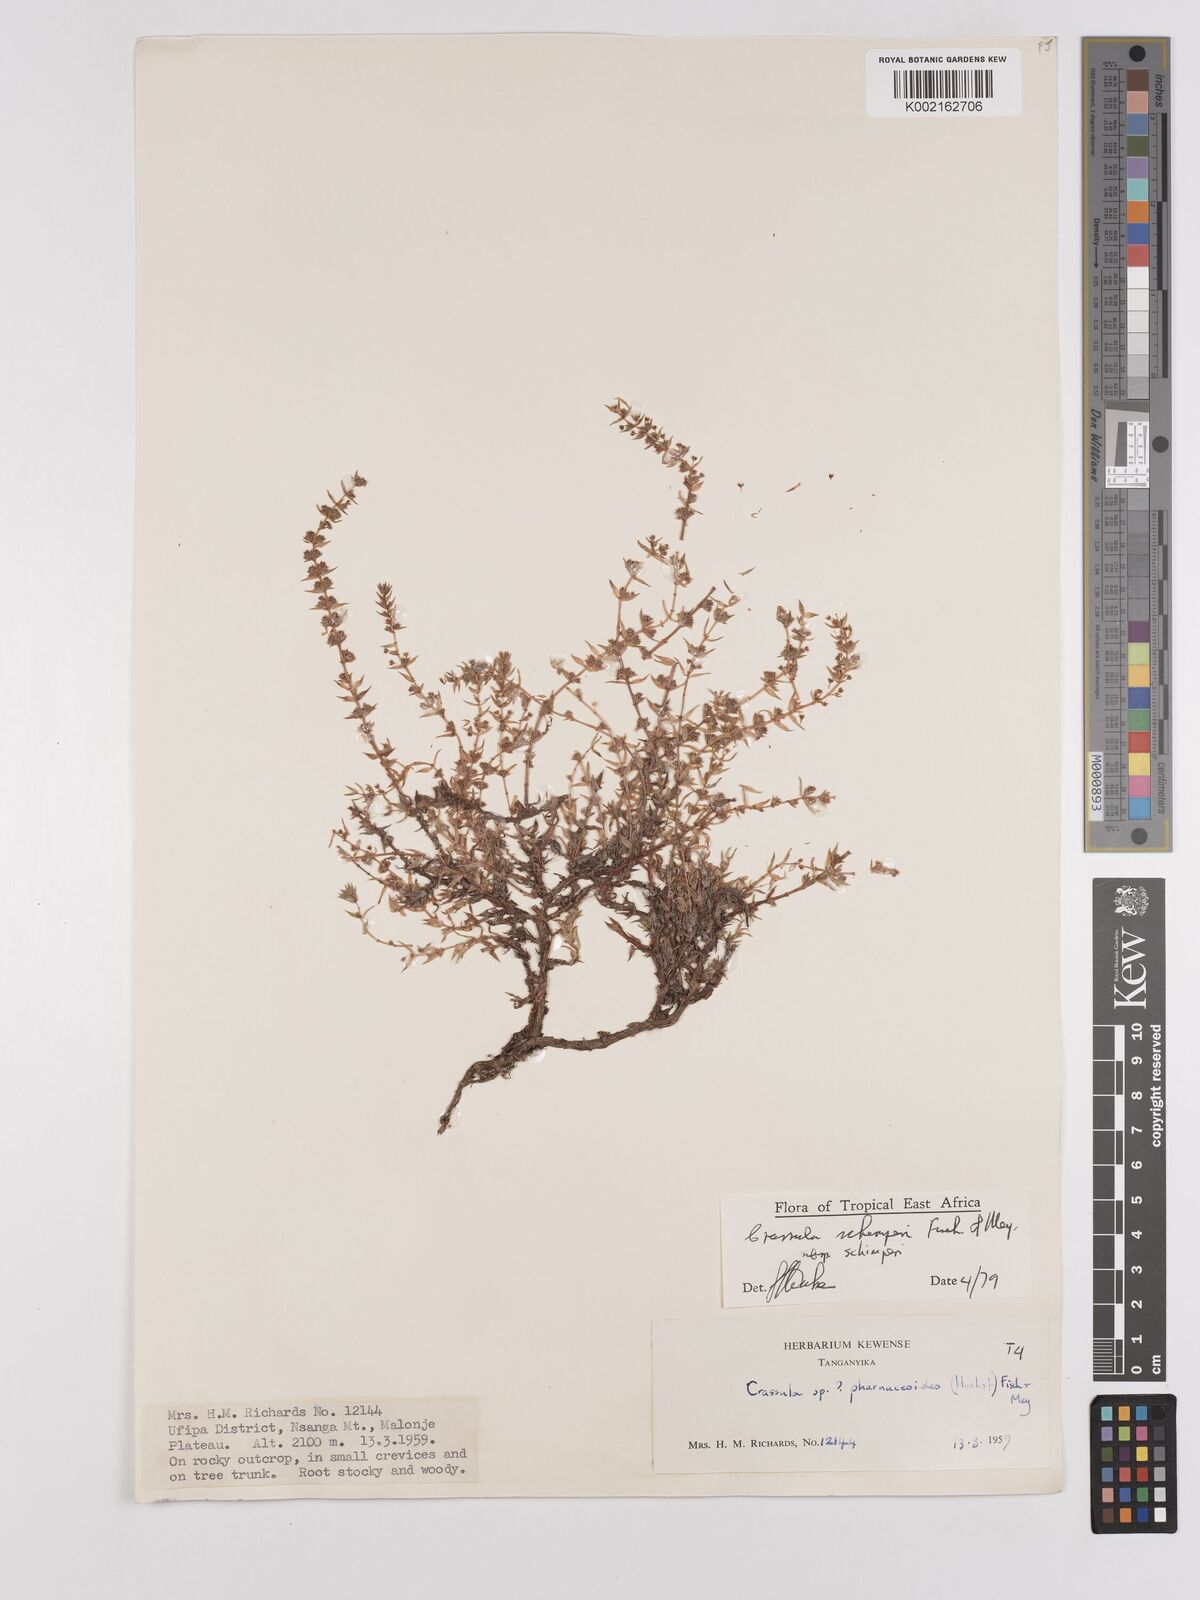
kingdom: Plantae
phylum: Tracheophyta
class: Magnoliopsida
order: Saxifragales
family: Crassulaceae
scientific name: Crassulaceae
